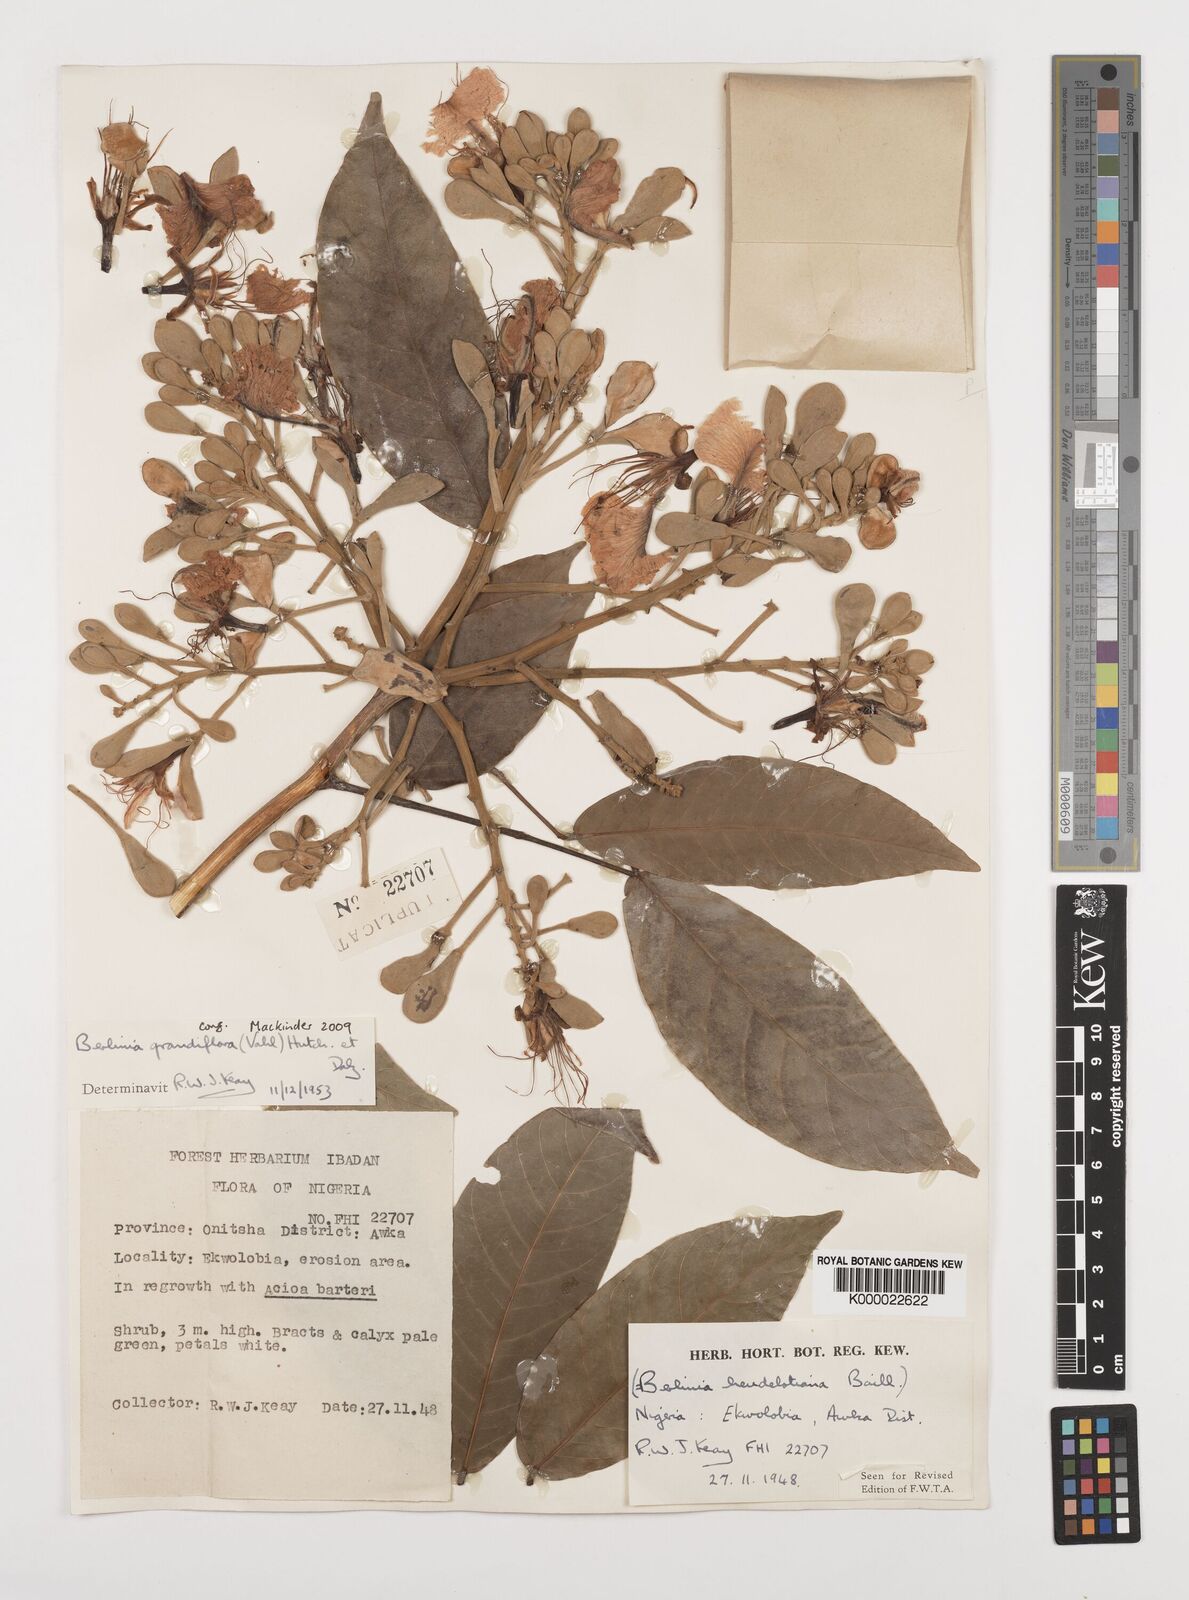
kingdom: Plantae
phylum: Tracheophyta
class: Magnoliopsida
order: Fabales
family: Fabaceae
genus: Berlinia
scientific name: Berlinia grandiflora
